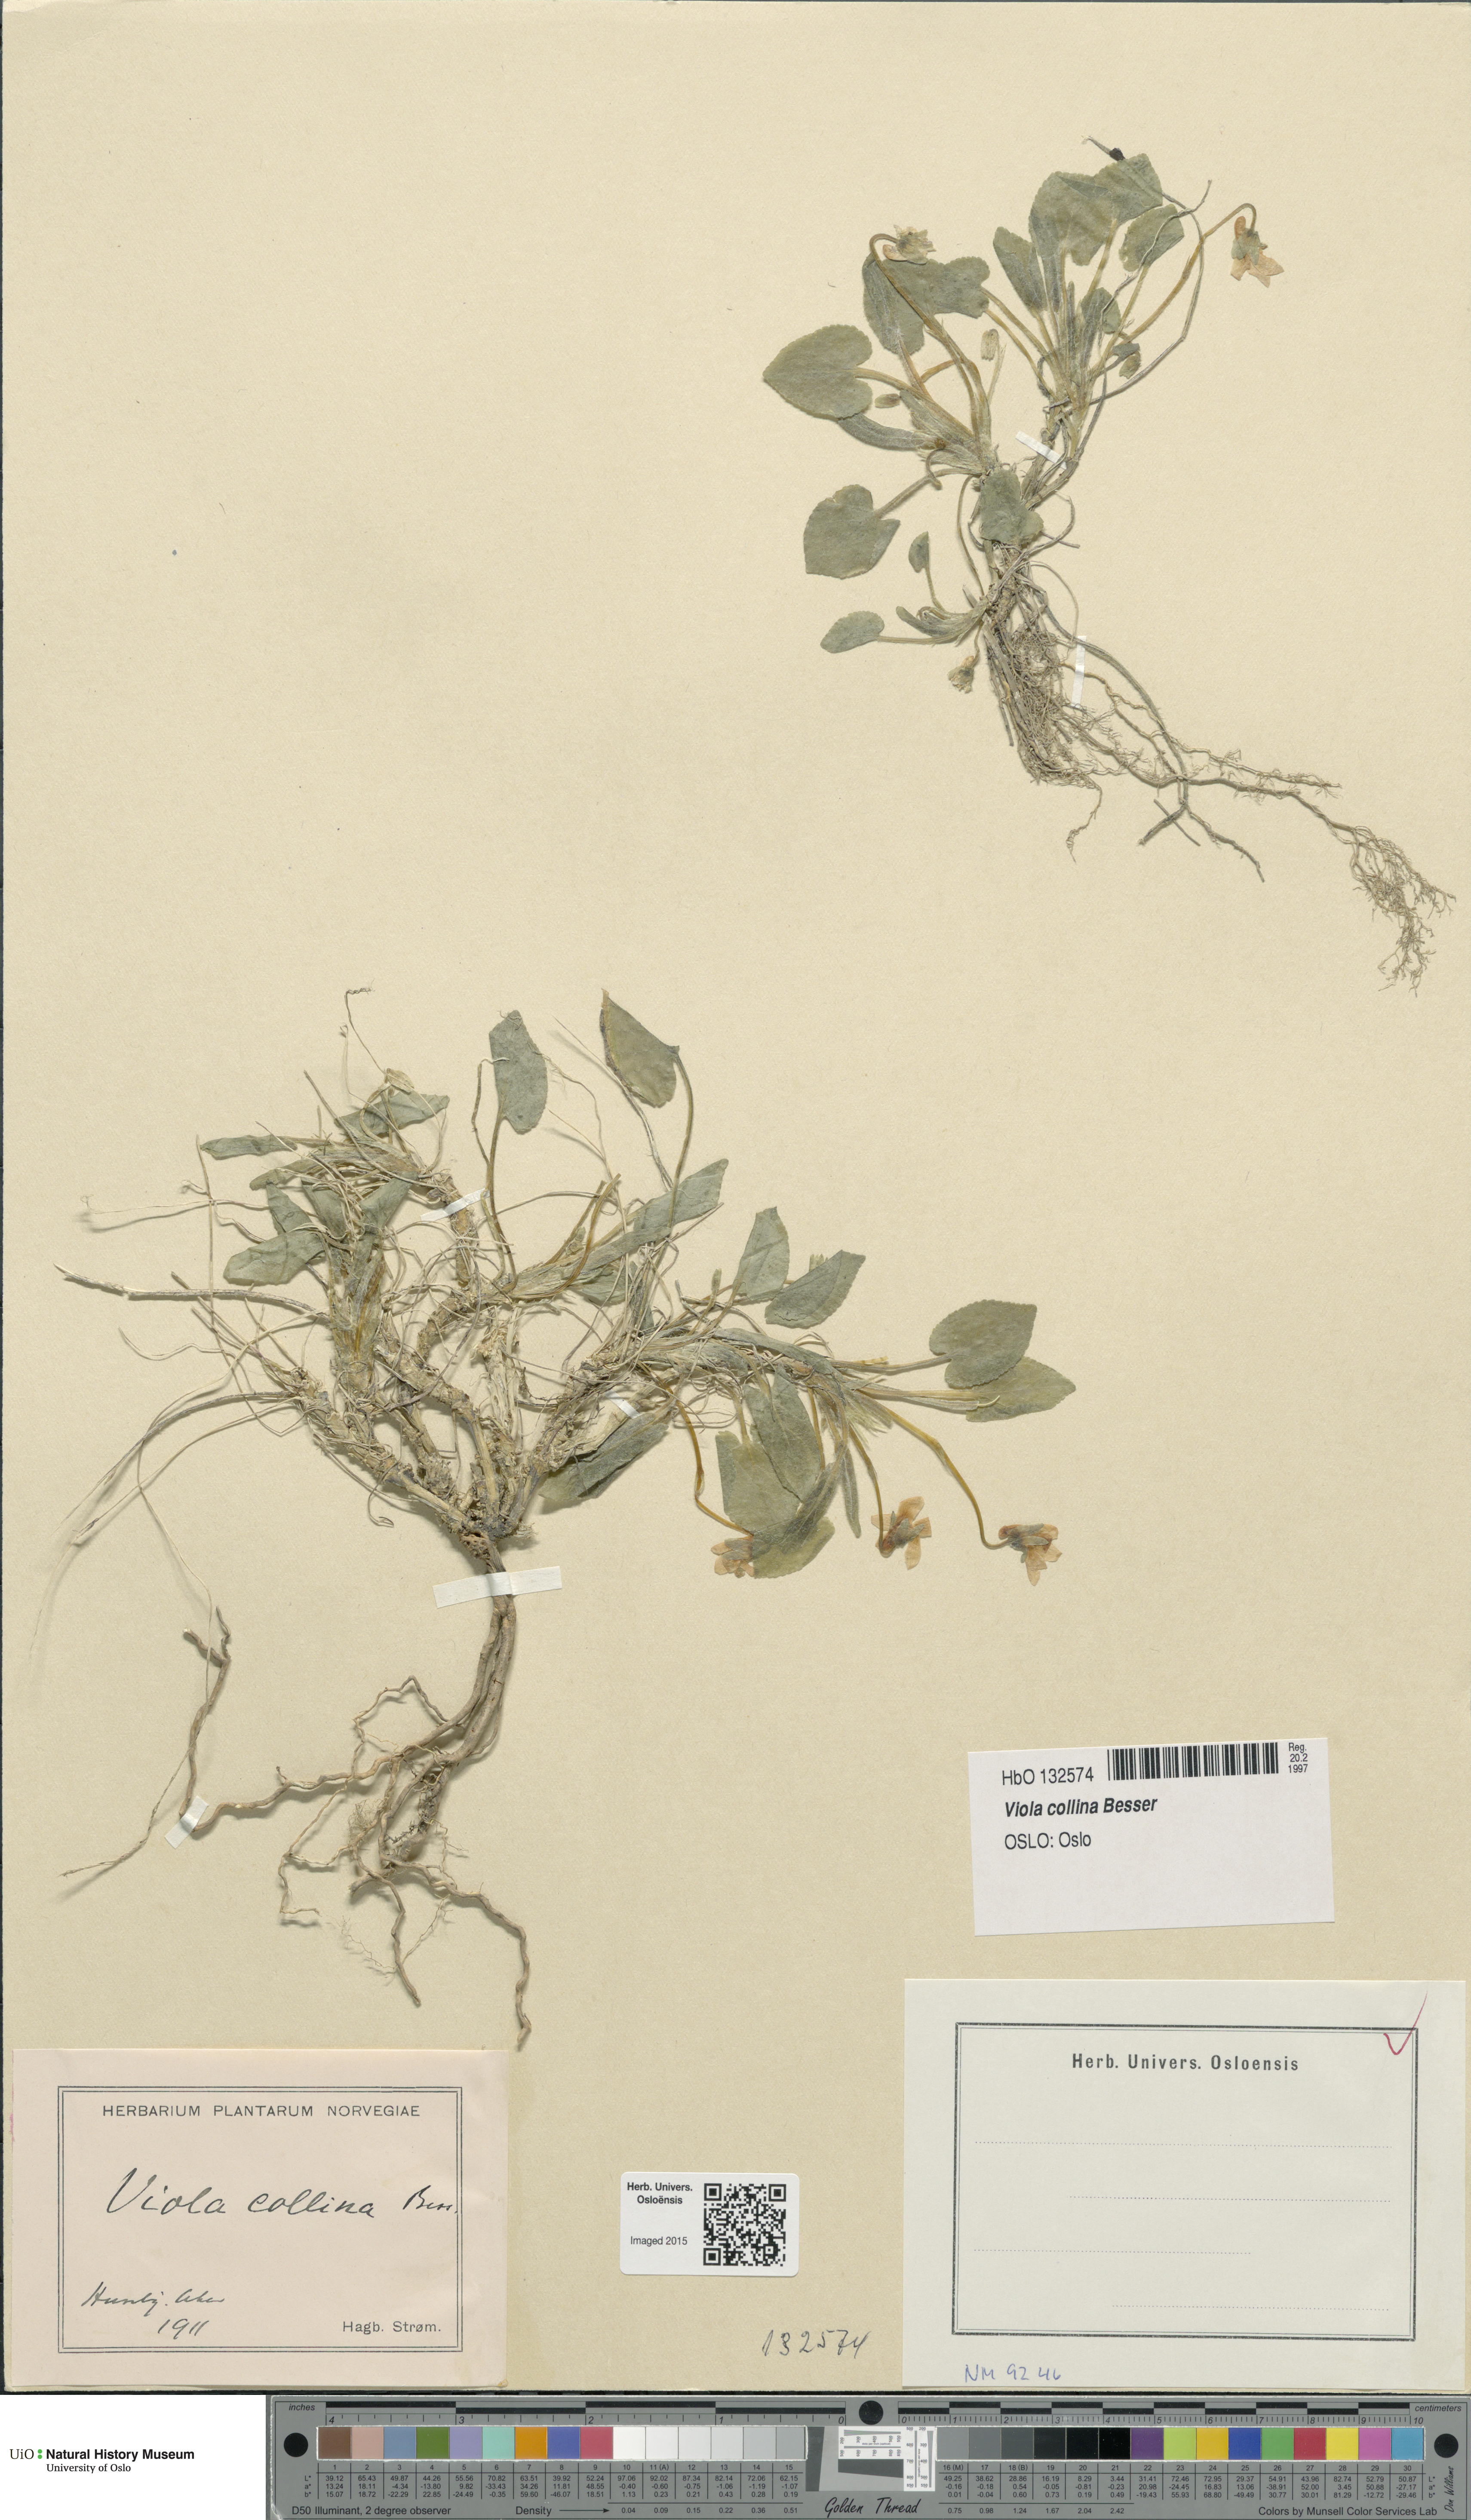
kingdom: Plantae
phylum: Tracheophyta
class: Magnoliopsida
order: Malpighiales
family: Violaceae
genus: Viola
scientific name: Viola collina
